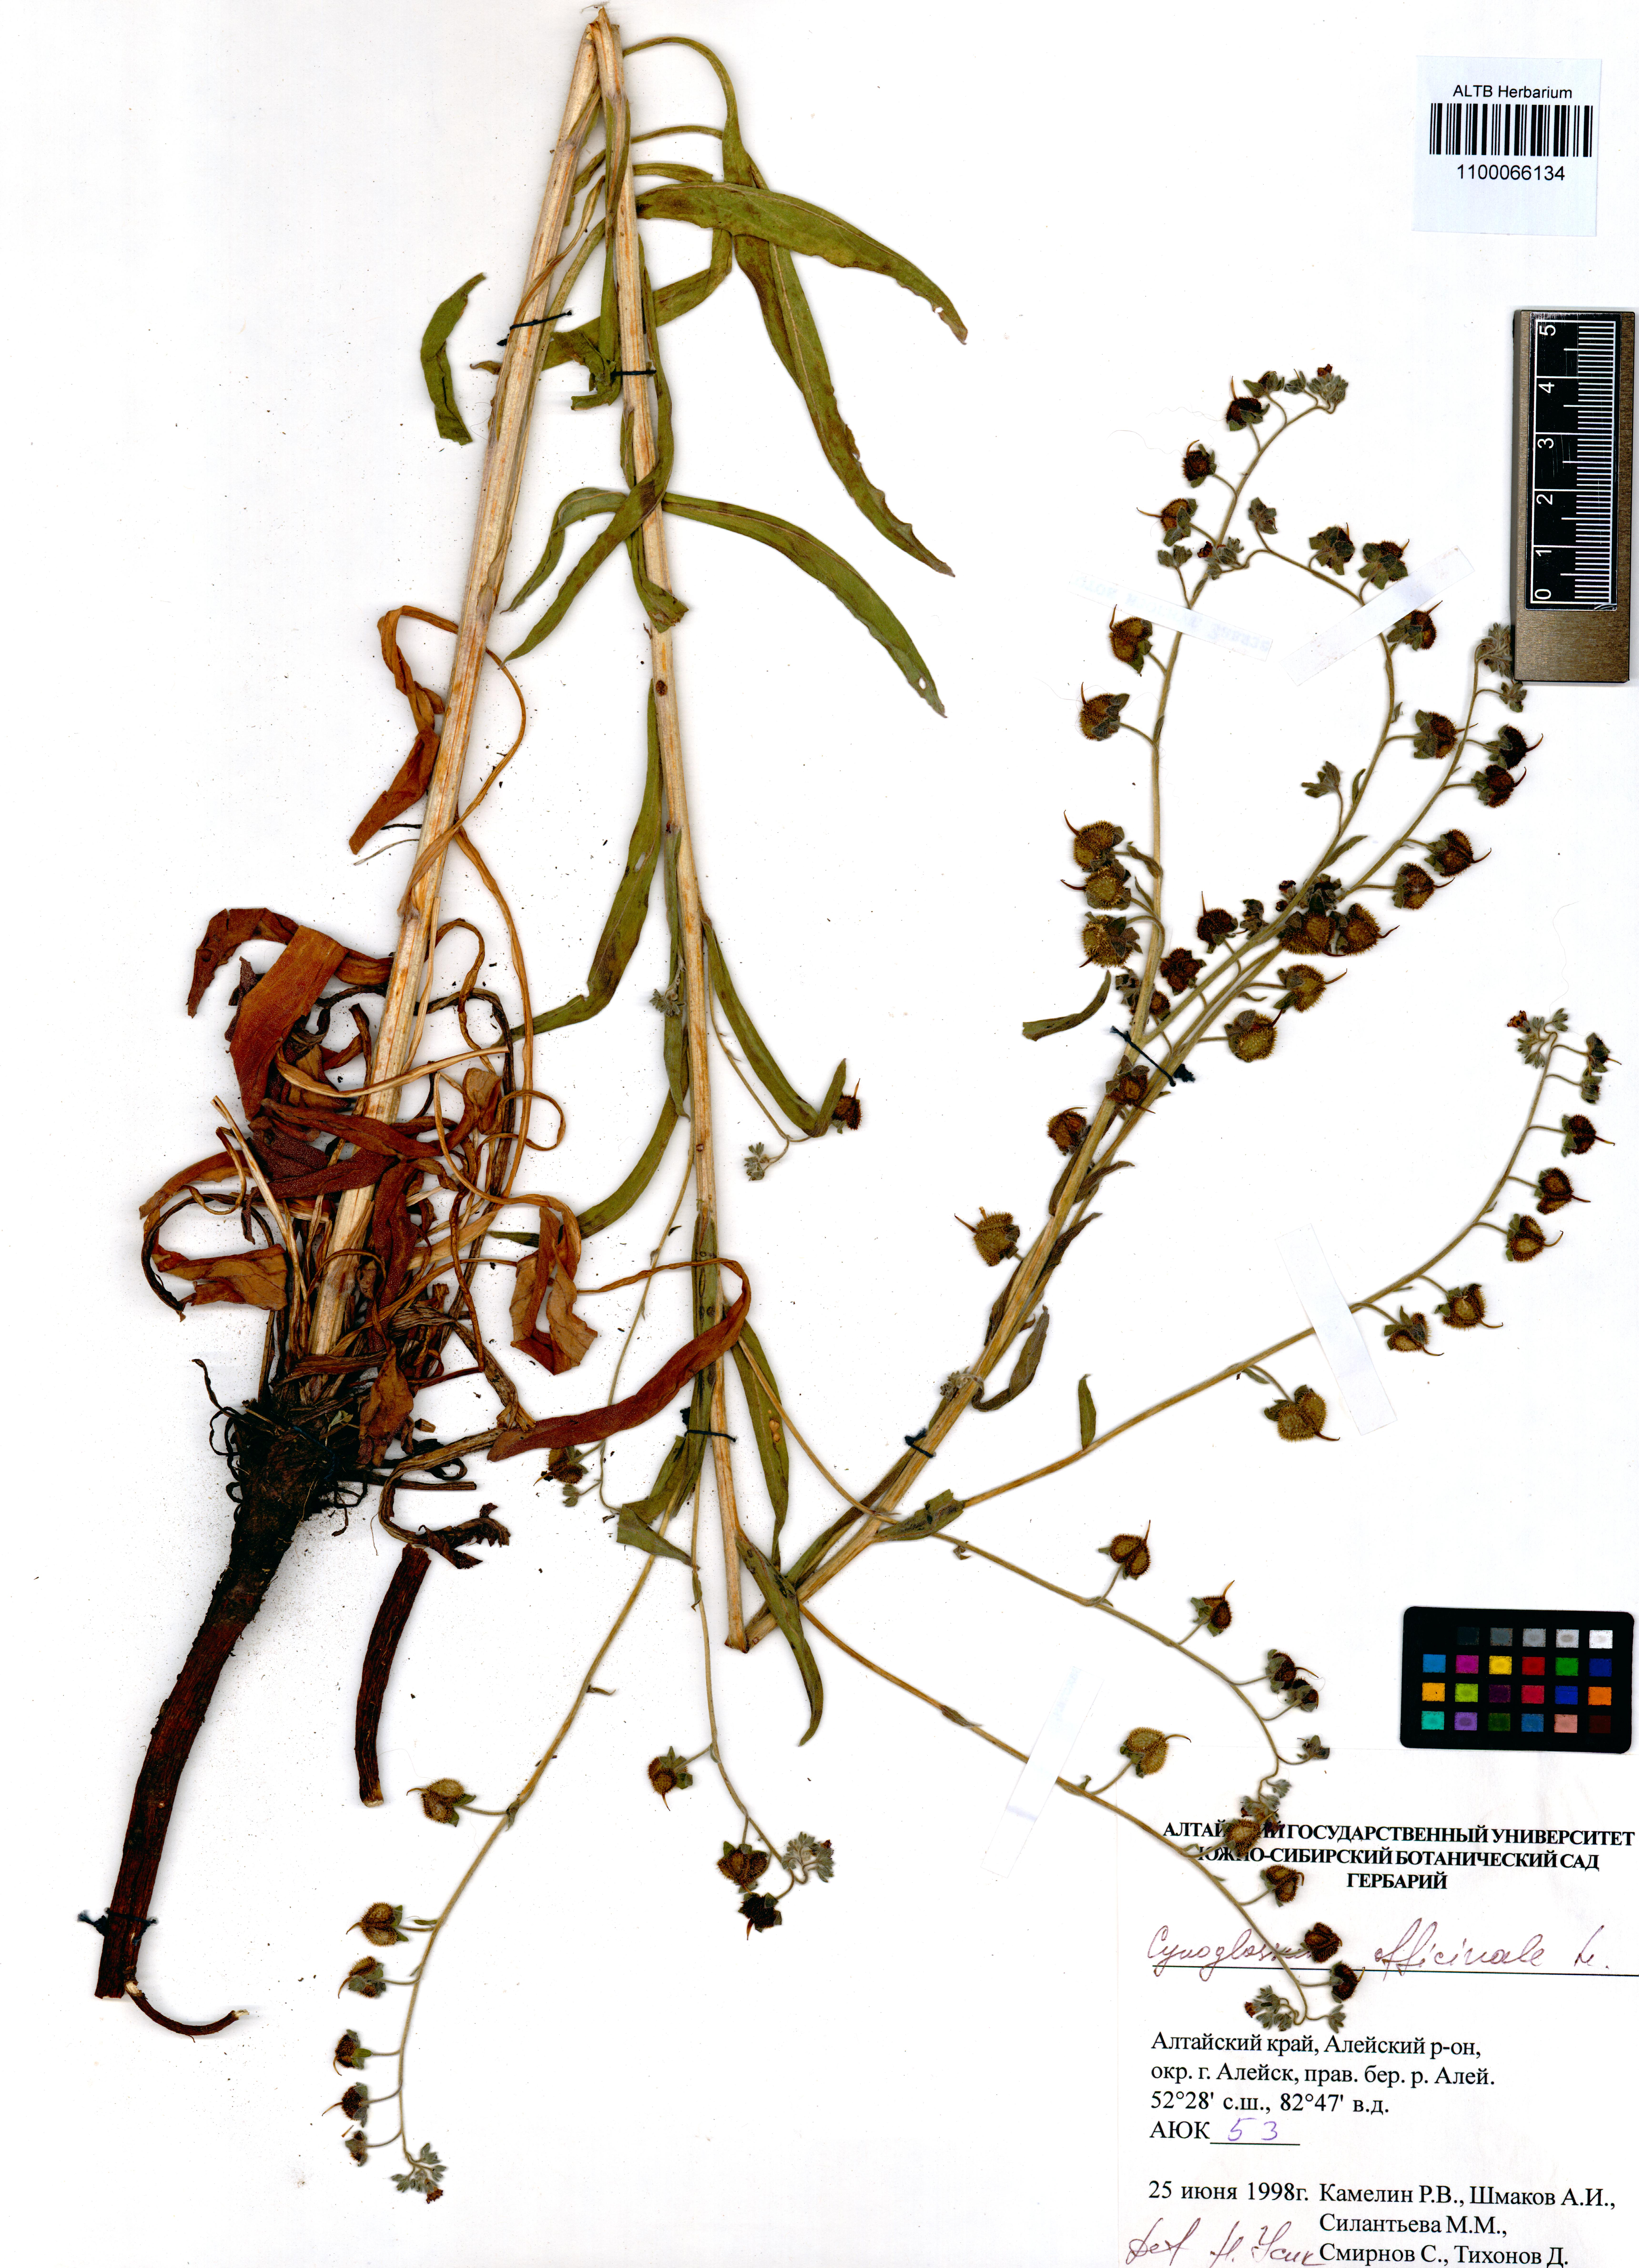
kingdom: Plantae
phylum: Tracheophyta
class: Magnoliopsida
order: Boraginales
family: Boraginaceae
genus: Cynoglossum
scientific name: Cynoglossum officinale
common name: Hound's-tongue
